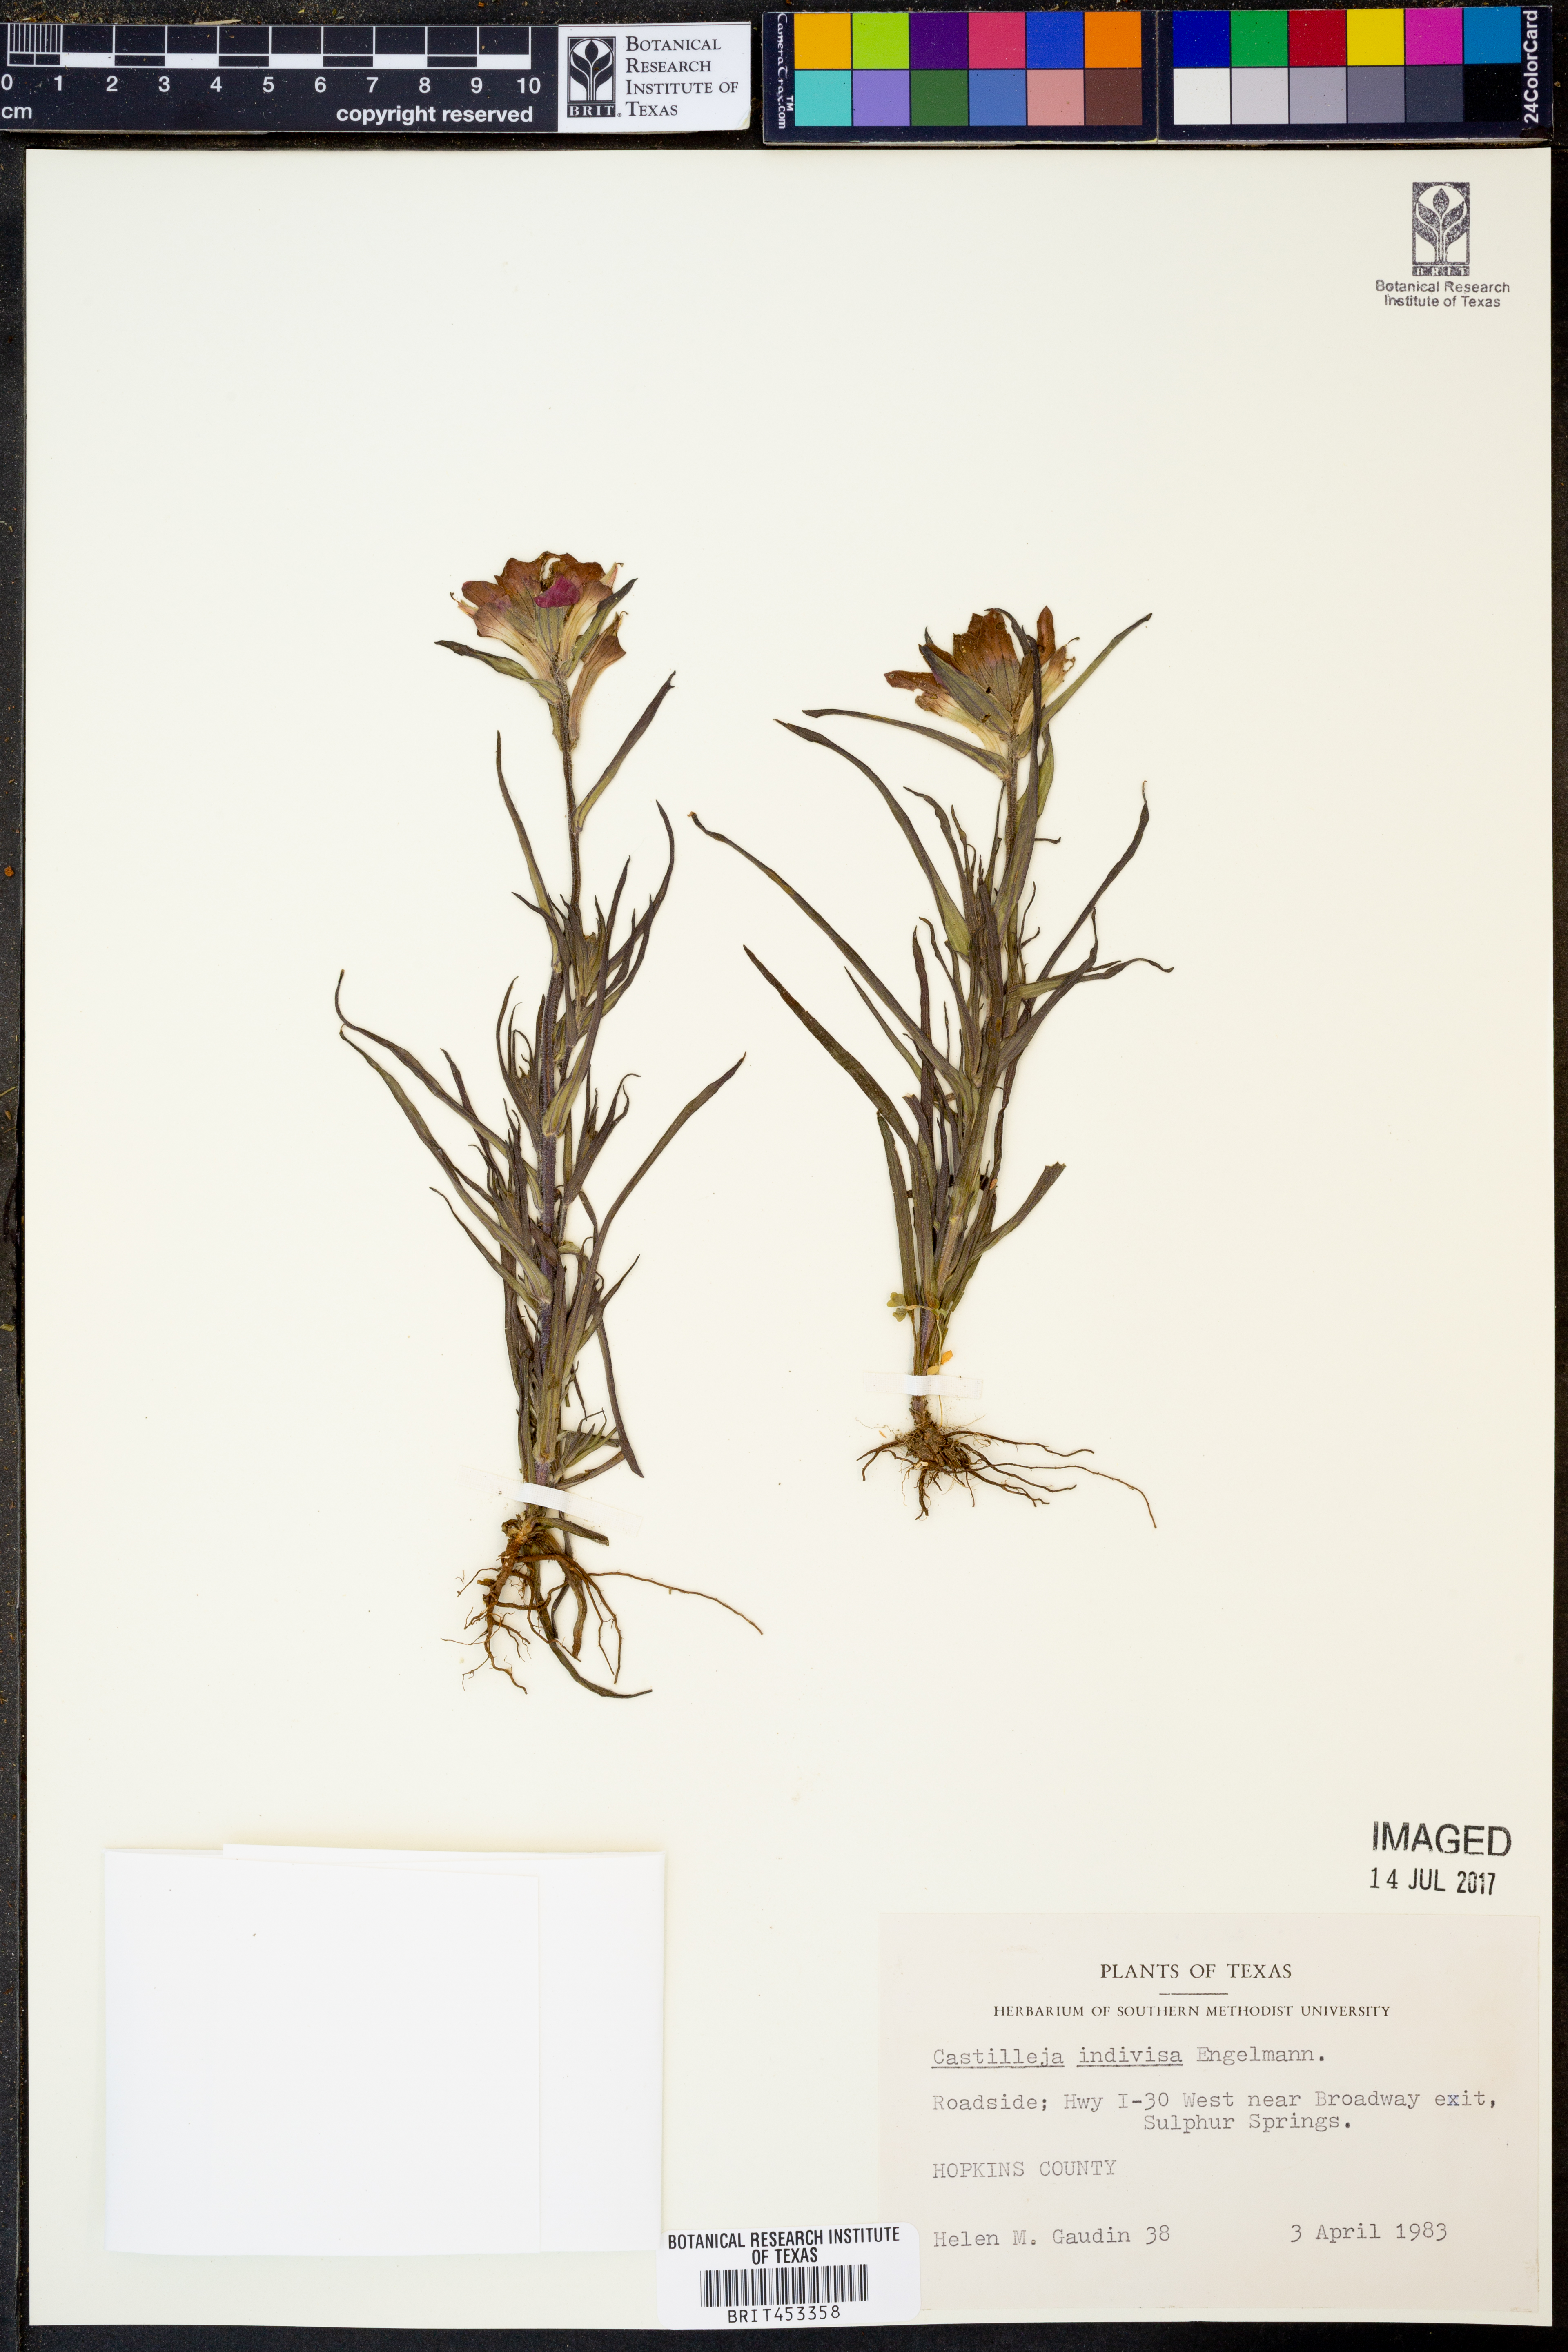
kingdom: Plantae
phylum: Tracheophyta
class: Magnoliopsida
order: Lamiales
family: Orobanchaceae
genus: Castilleja
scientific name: Castilleja indivisa
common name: Texas paintbrush
